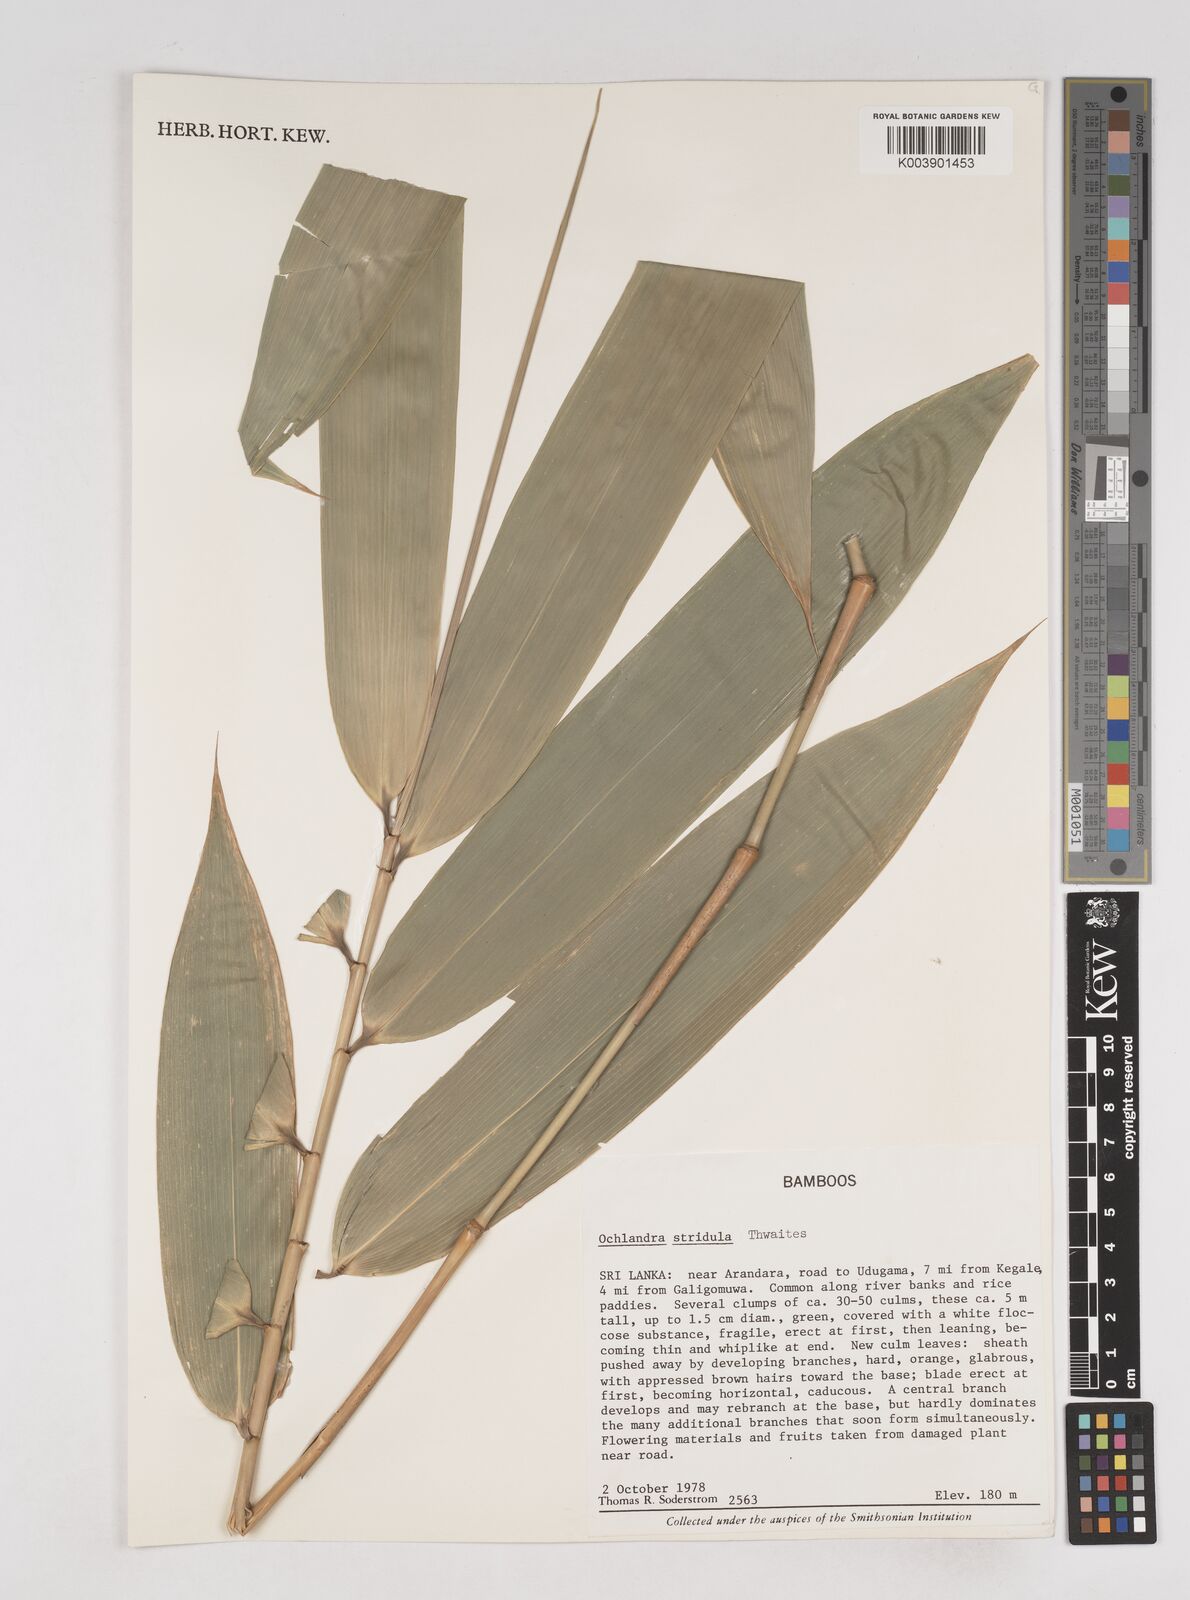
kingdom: Plantae
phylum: Tracheophyta
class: Liliopsida
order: Poales
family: Poaceae
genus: Ochlandra
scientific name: Ochlandra stridula
